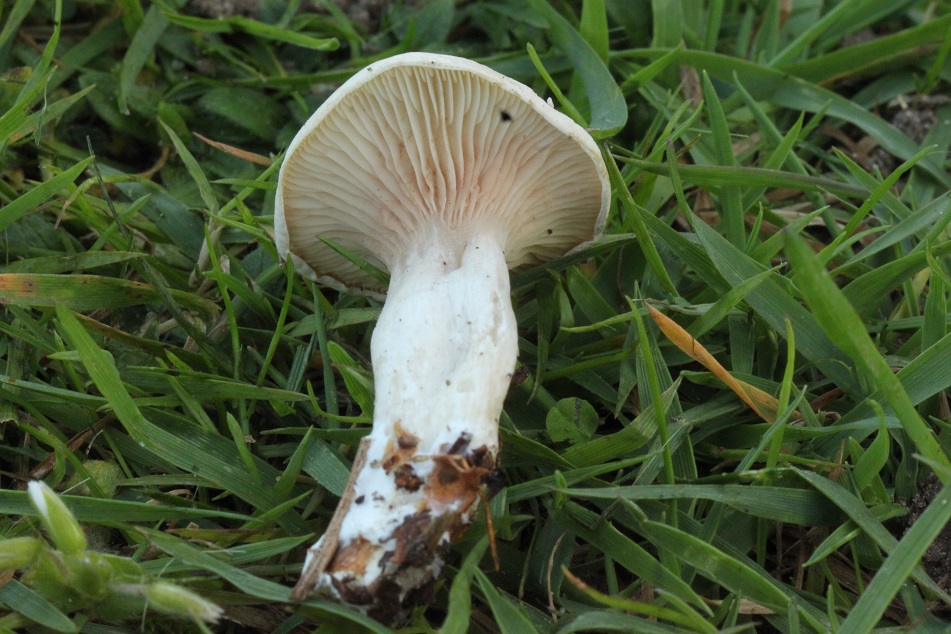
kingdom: Fungi
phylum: Basidiomycota
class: Agaricomycetes
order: Agaricales
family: Entolomataceae
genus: Clitopilus
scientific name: Clitopilus prunulus
